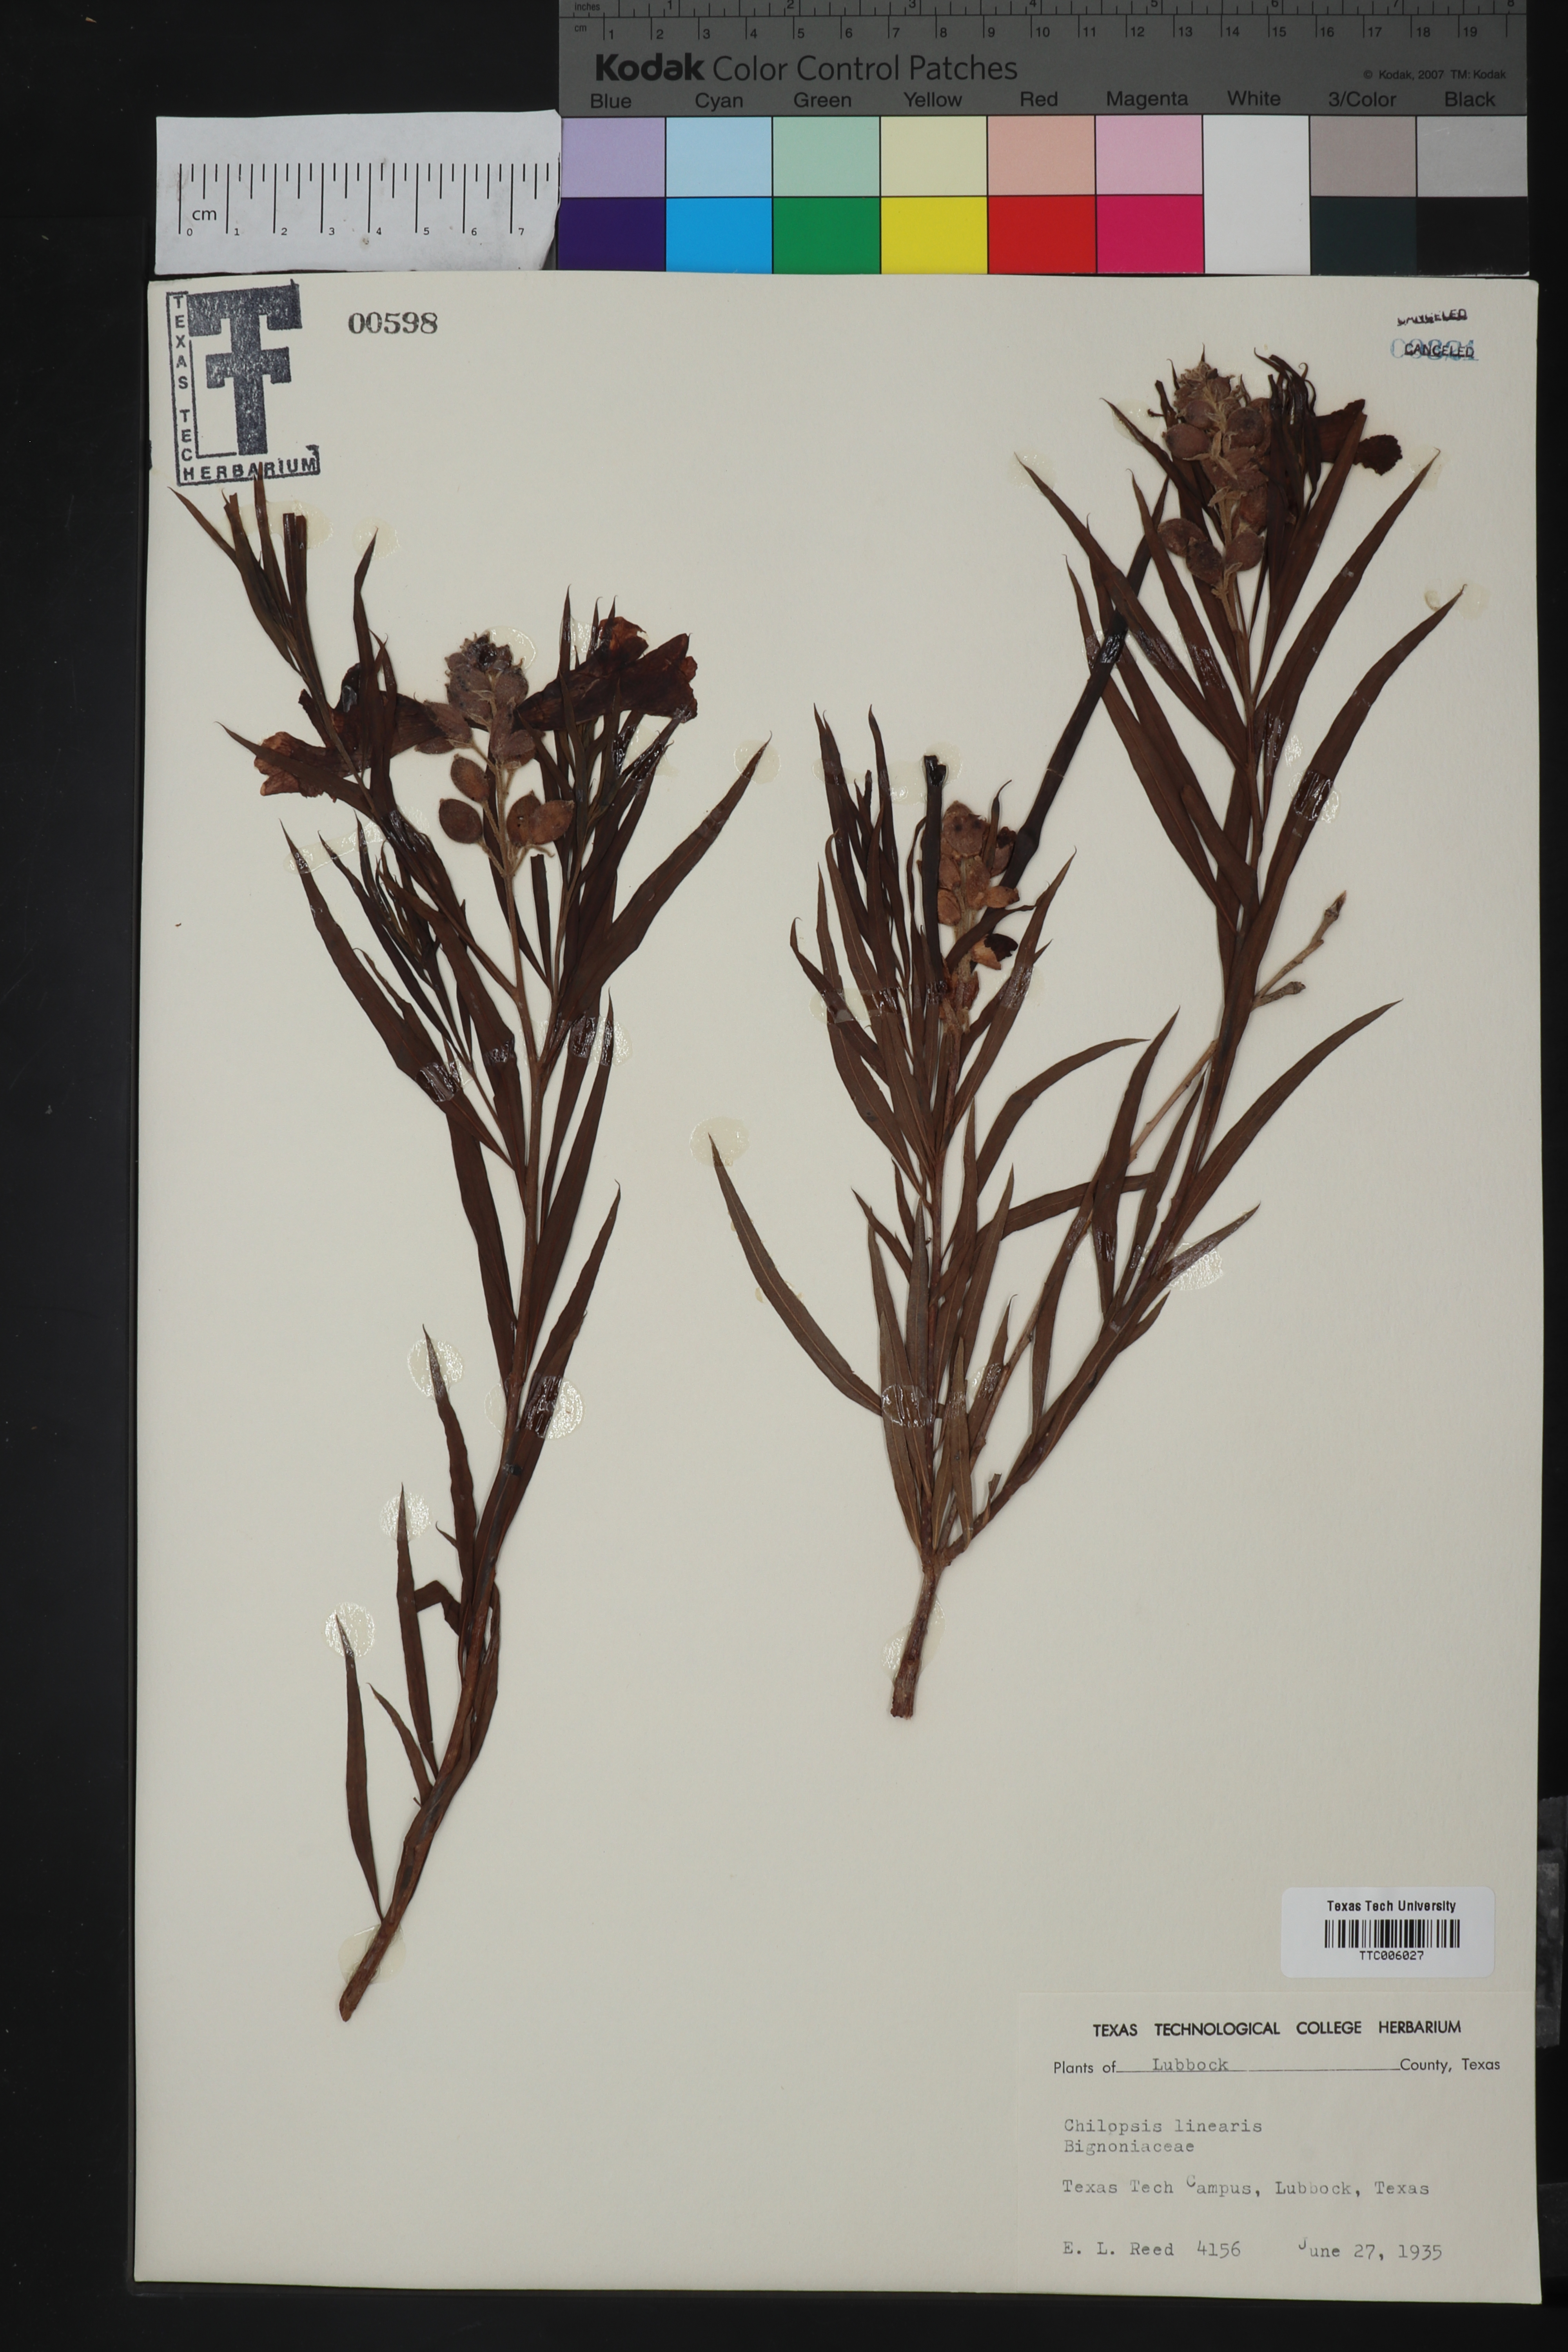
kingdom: Plantae
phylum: Tracheophyta
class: Magnoliopsida
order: Lamiales
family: Bignoniaceae
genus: Chilopsis
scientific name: Chilopsis linearis
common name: Desert-willow
